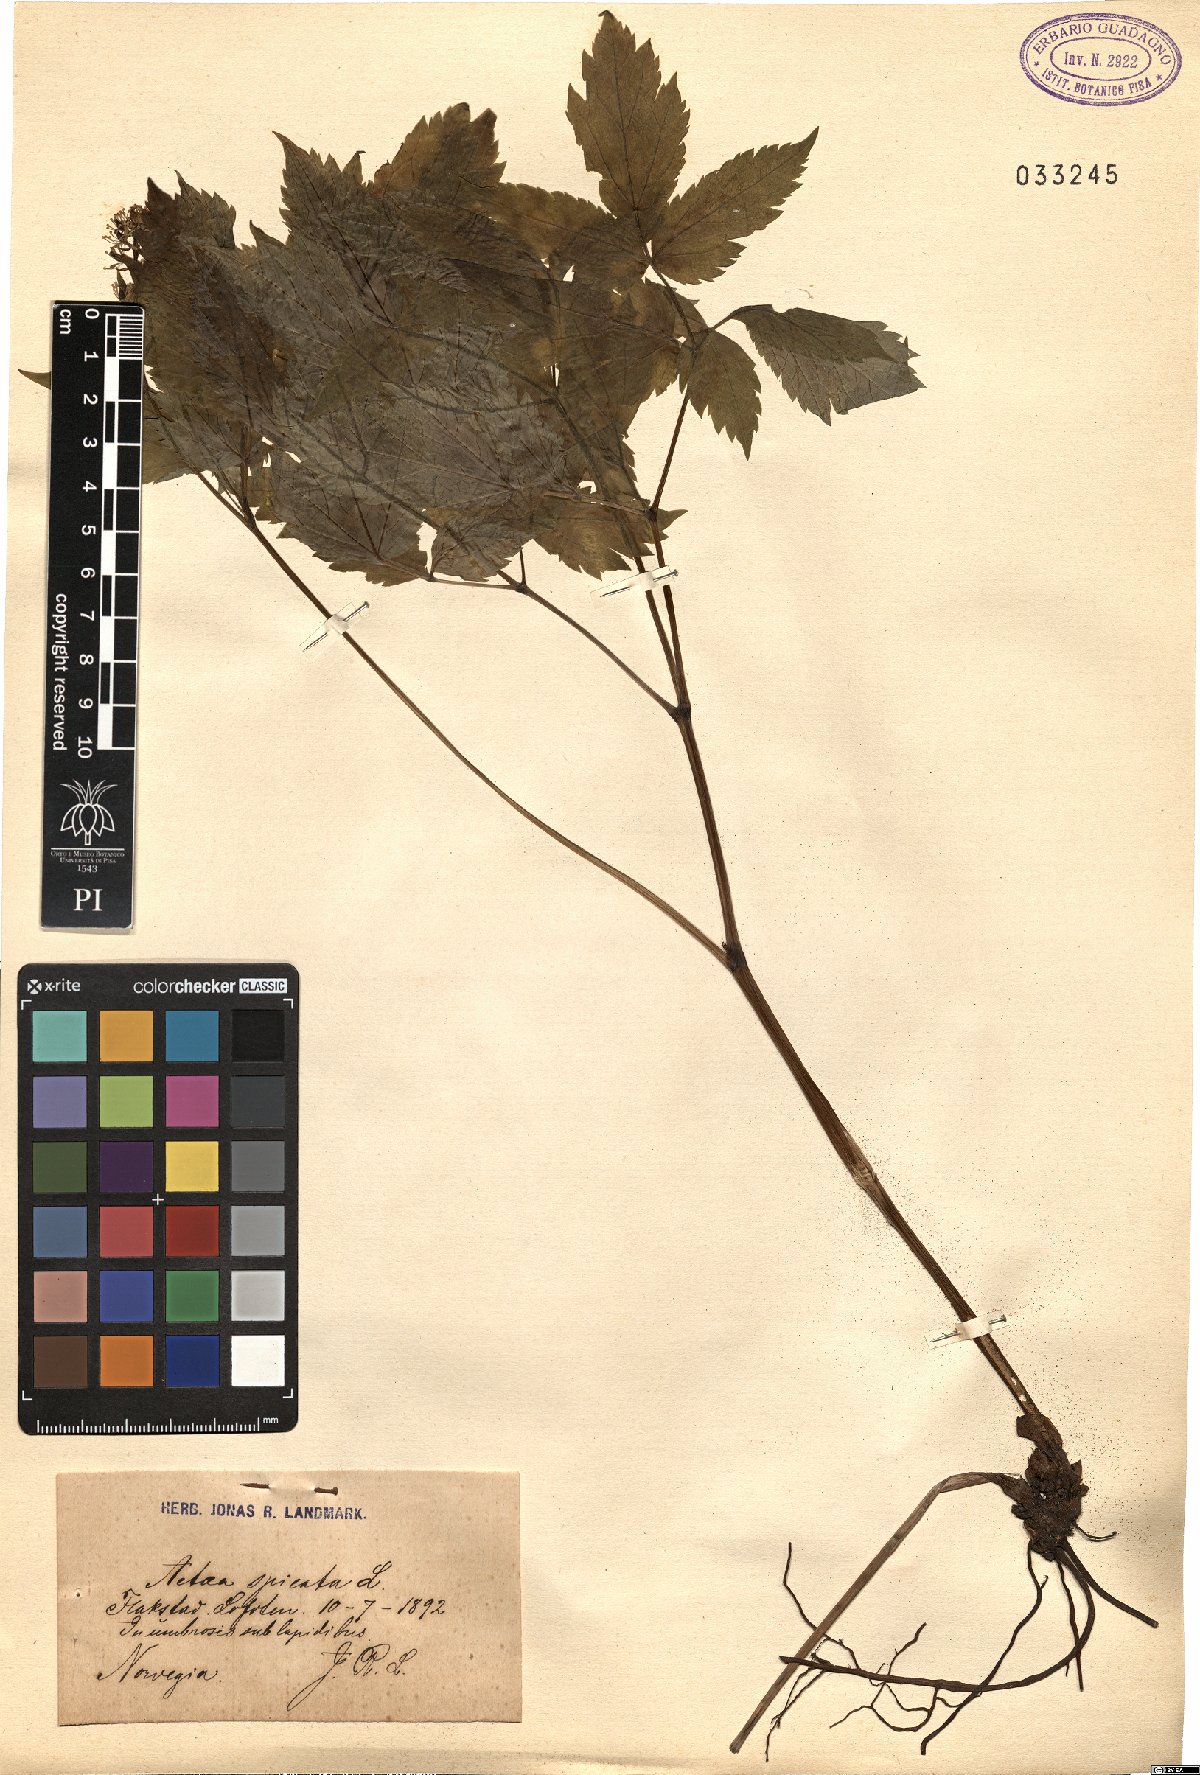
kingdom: Plantae
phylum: Tracheophyta
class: Magnoliopsida
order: Ranunculales
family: Ranunculaceae
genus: Actaea
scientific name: Actaea spicata
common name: Baneberry
